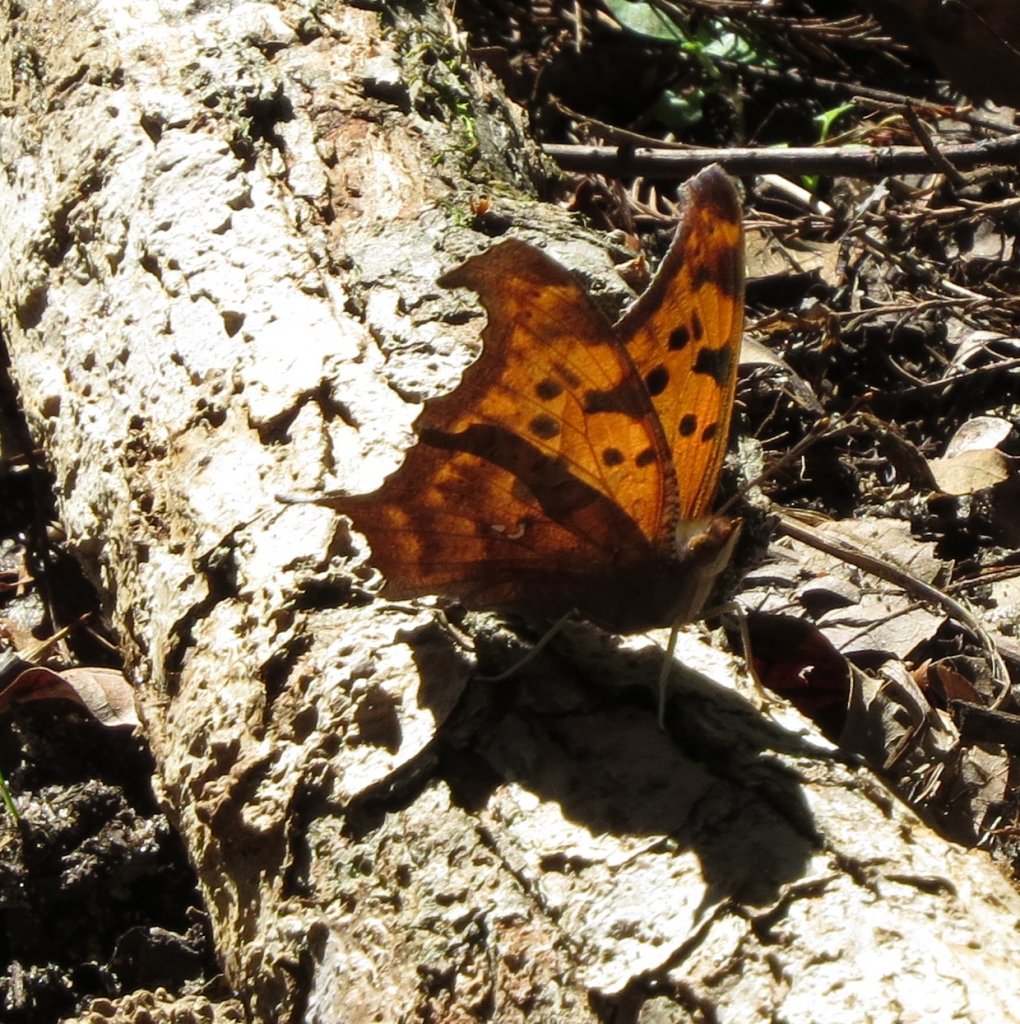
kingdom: Animalia
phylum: Arthropoda
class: Insecta
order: Lepidoptera
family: Nymphalidae
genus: Polygonia
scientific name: Polygonia interrogationis
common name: Question Mark
